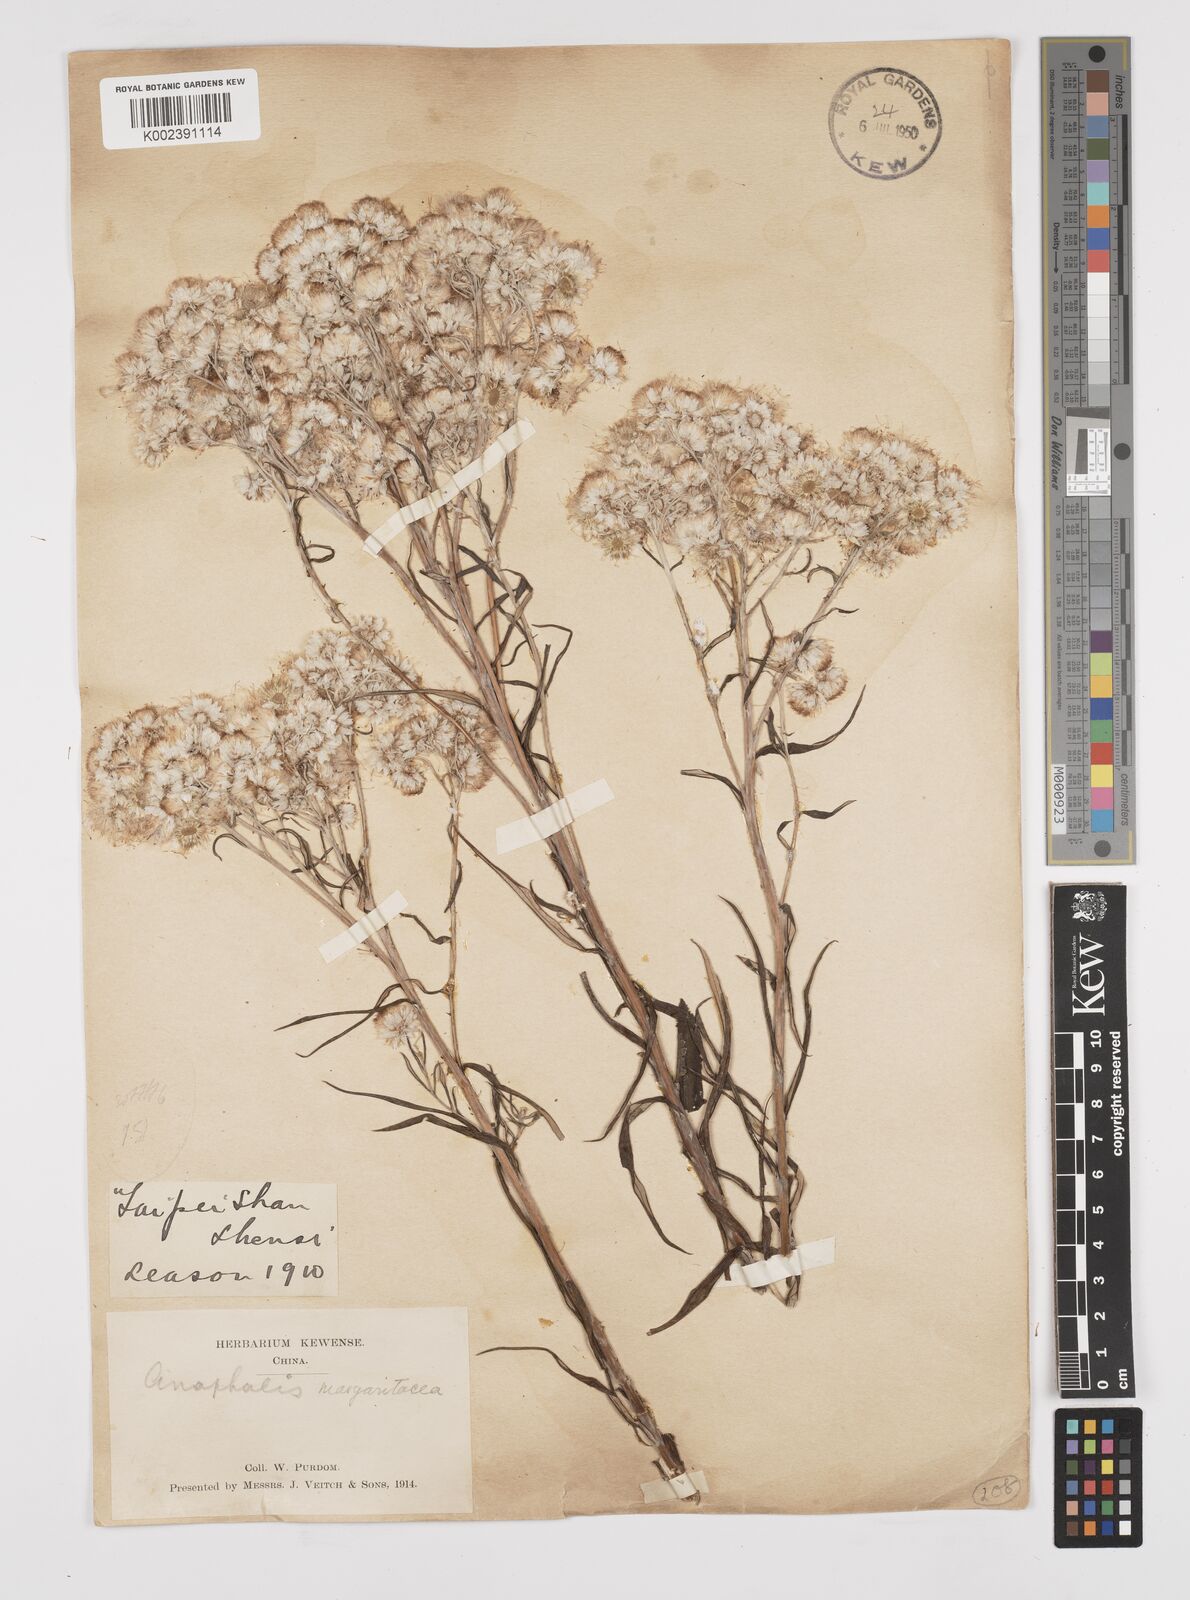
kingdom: Plantae
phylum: Tracheophyta
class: Magnoliopsida
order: Asterales
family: Asteraceae
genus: Anaphalis
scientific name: Anaphalis margaritacea
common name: Pearly everlasting
